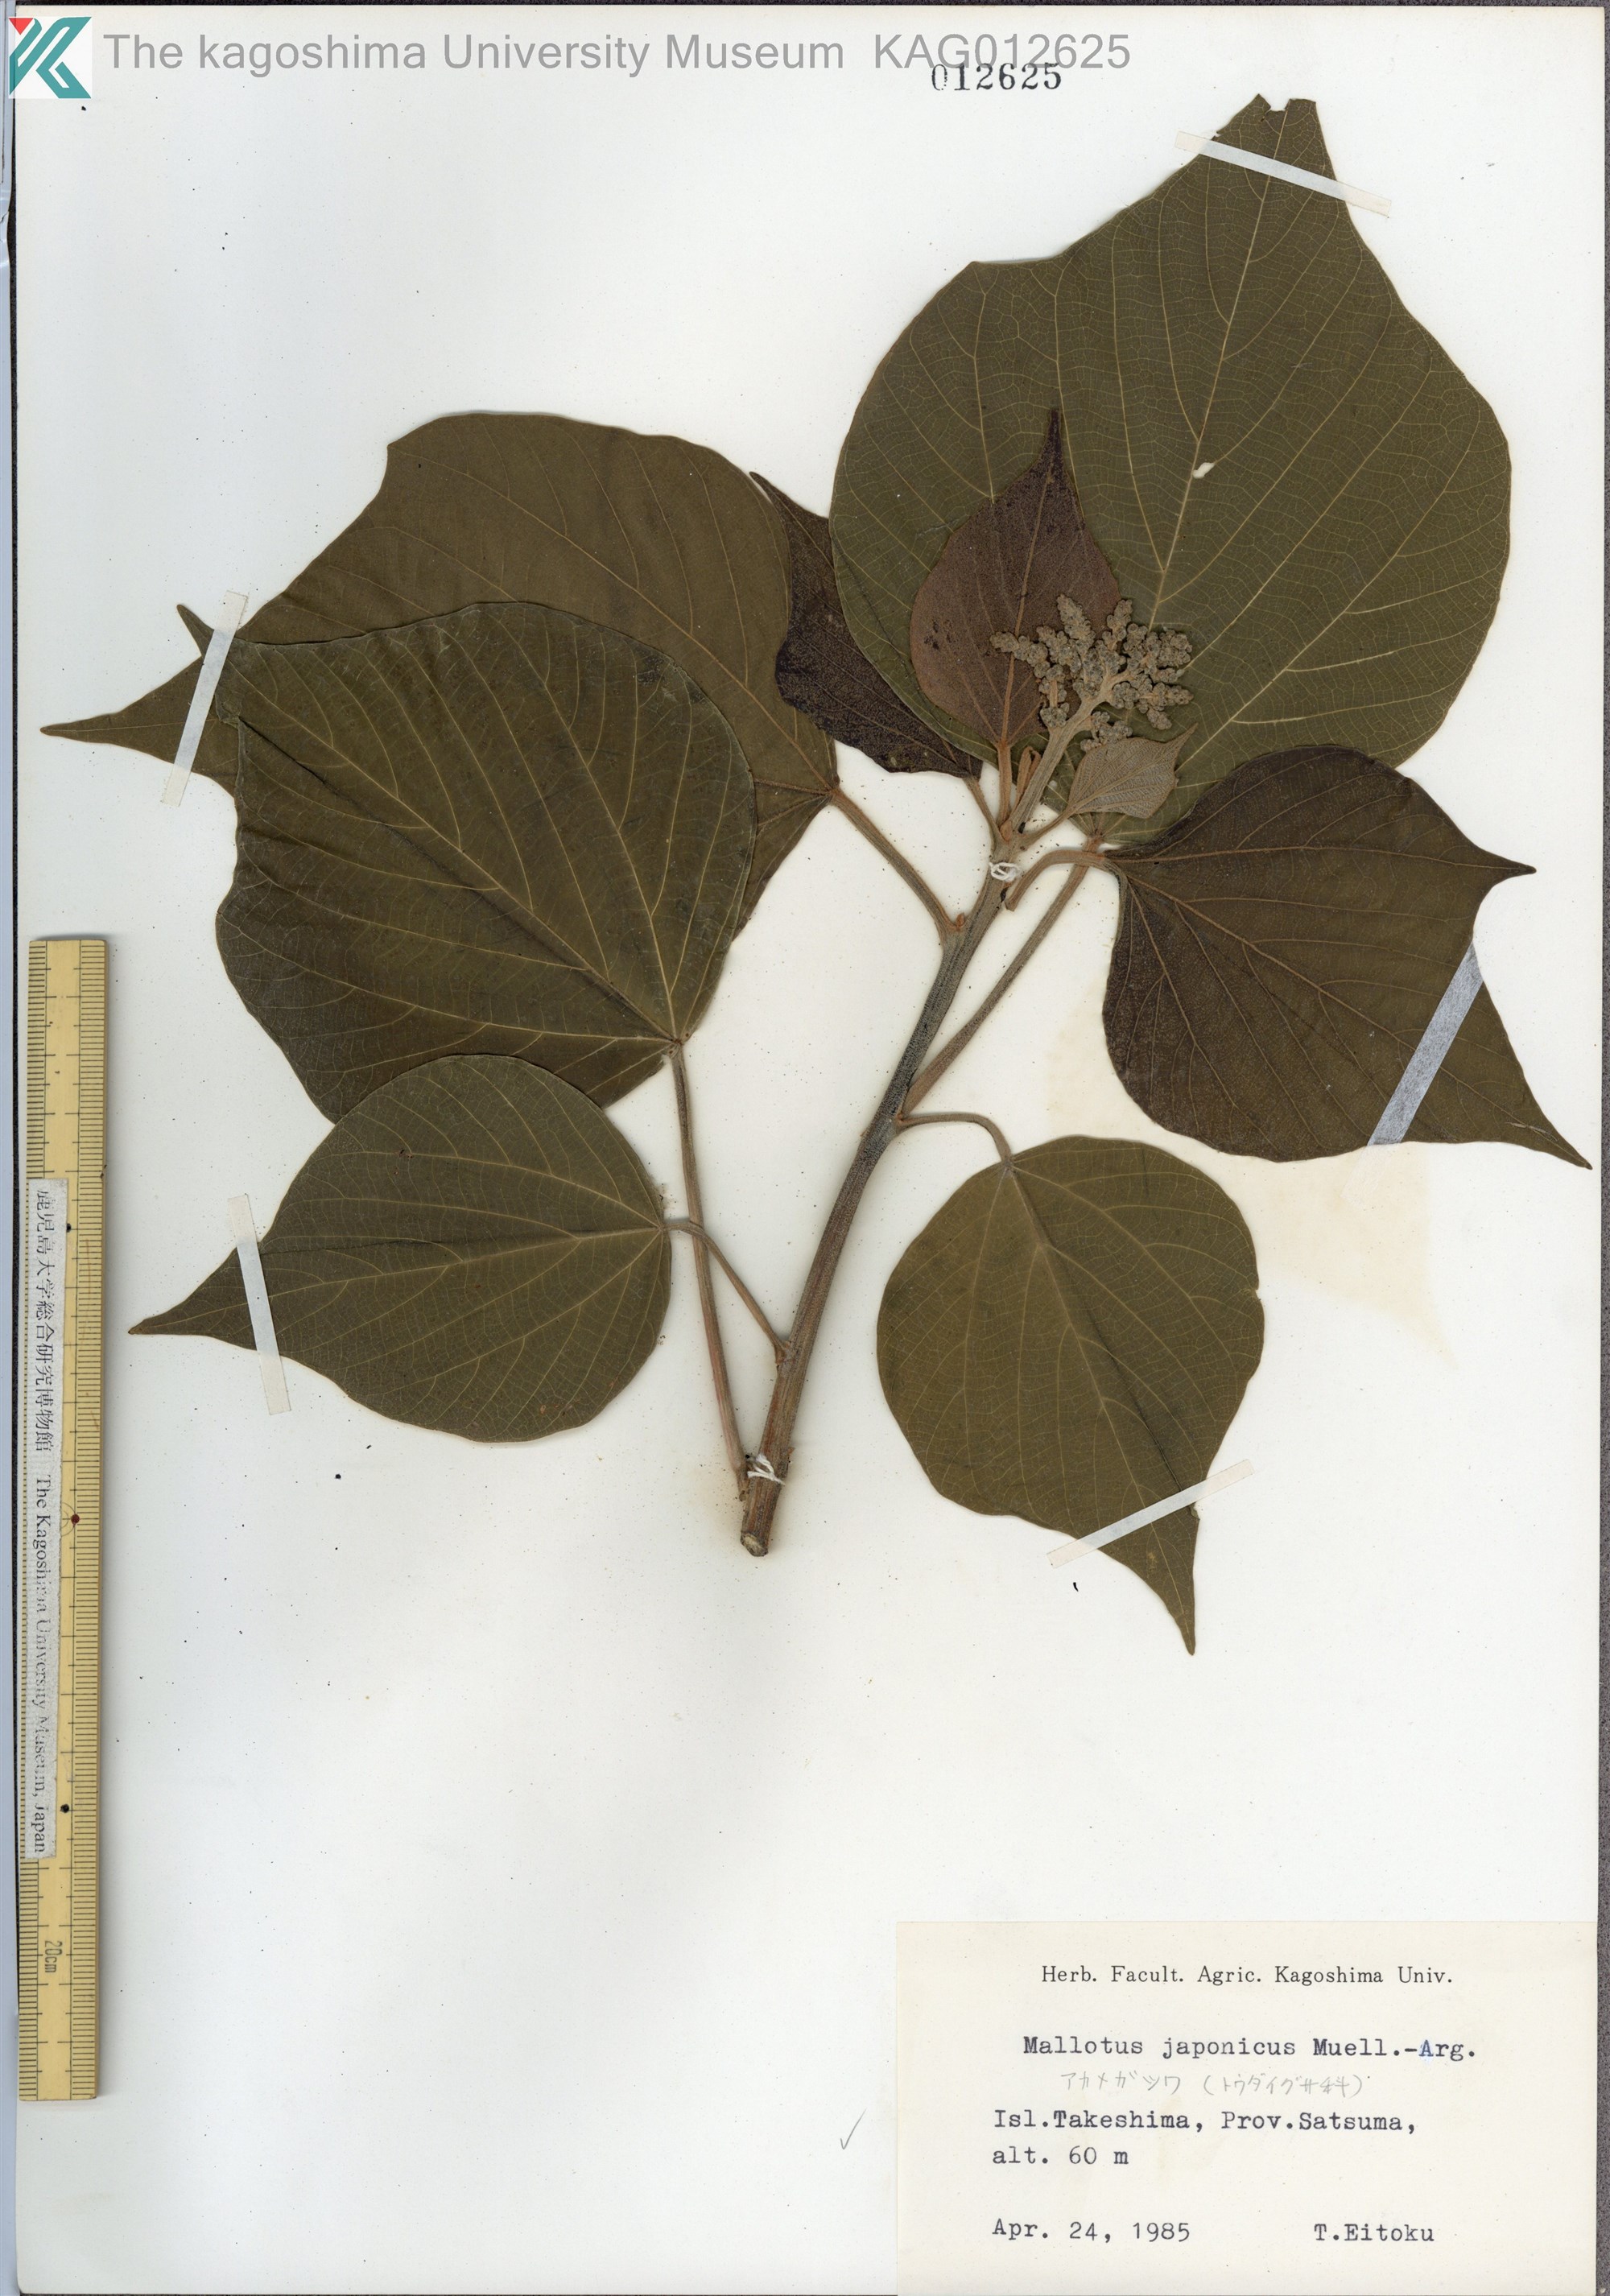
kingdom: Plantae
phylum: Tracheophyta
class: Magnoliopsida
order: Malpighiales
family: Euphorbiaceae
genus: Mallotus
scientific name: Mallotus japonicus
